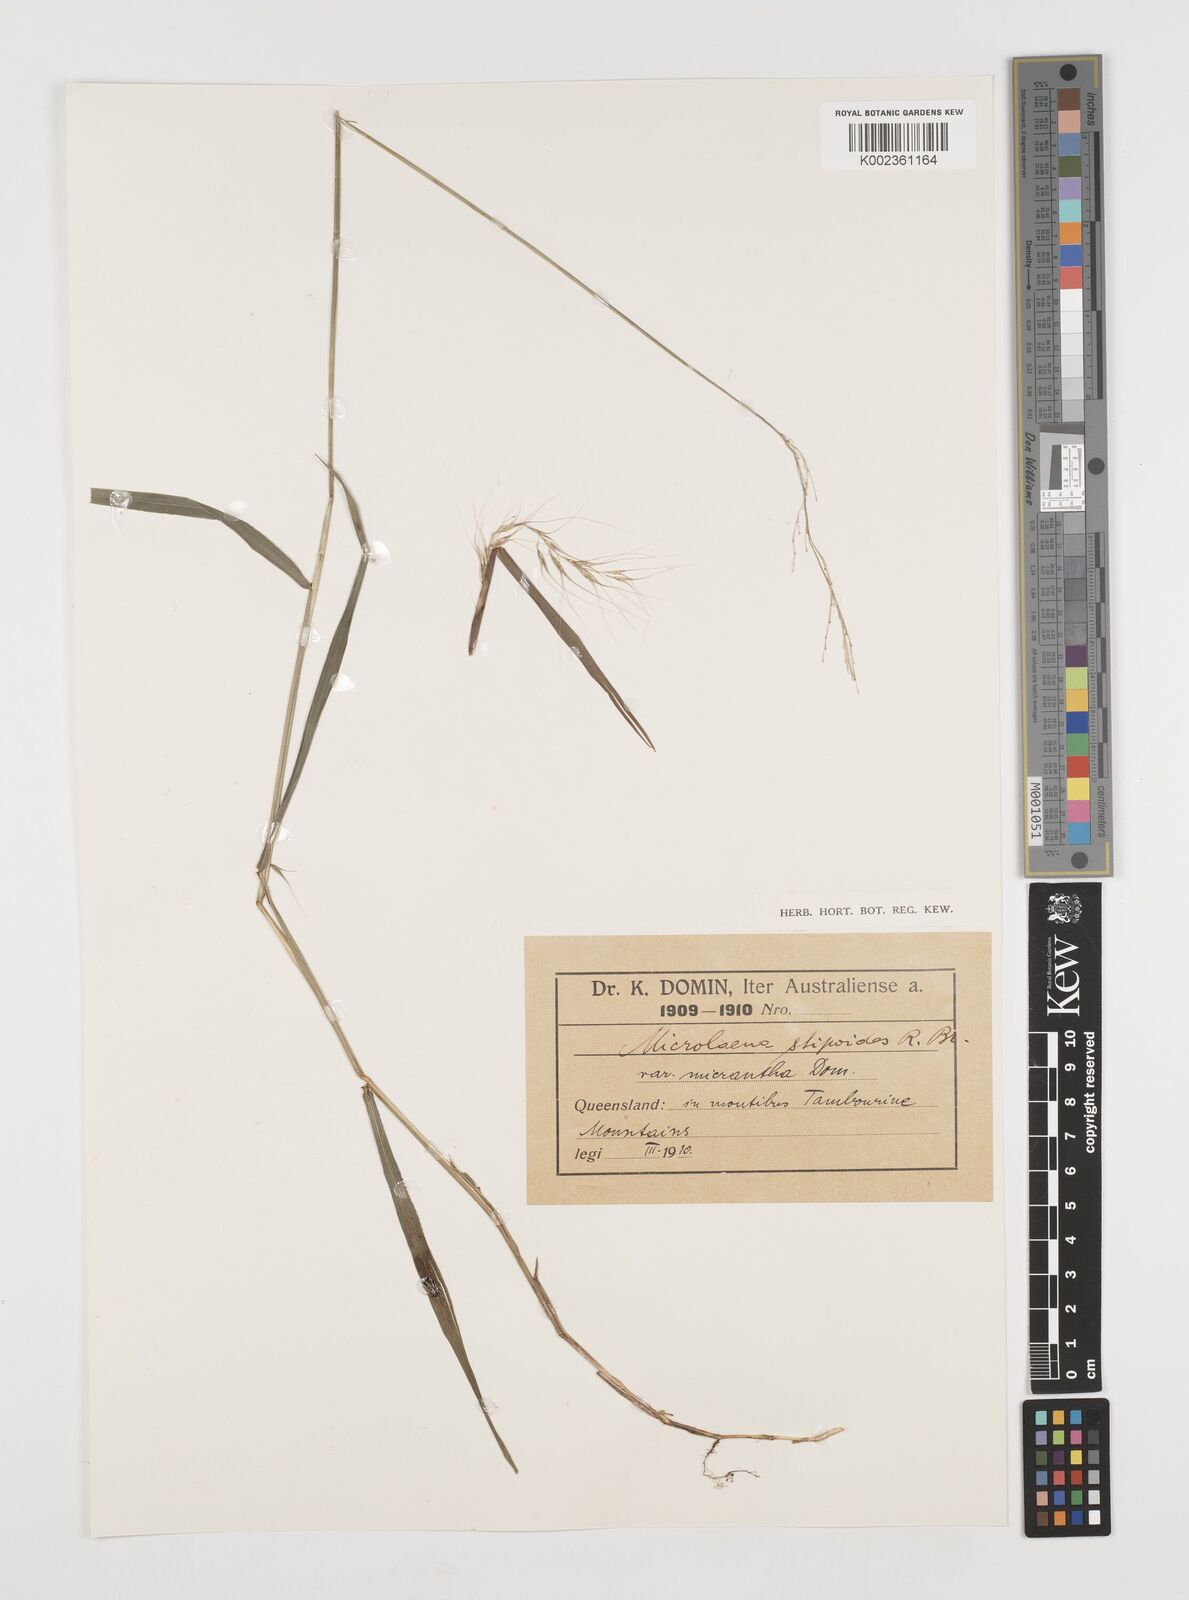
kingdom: Plantae
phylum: Tracheophyta
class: Liliopsida
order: Poales
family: Poaceae
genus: Microlaena
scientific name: Microlaena stipoides
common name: Meadow ricegrass
